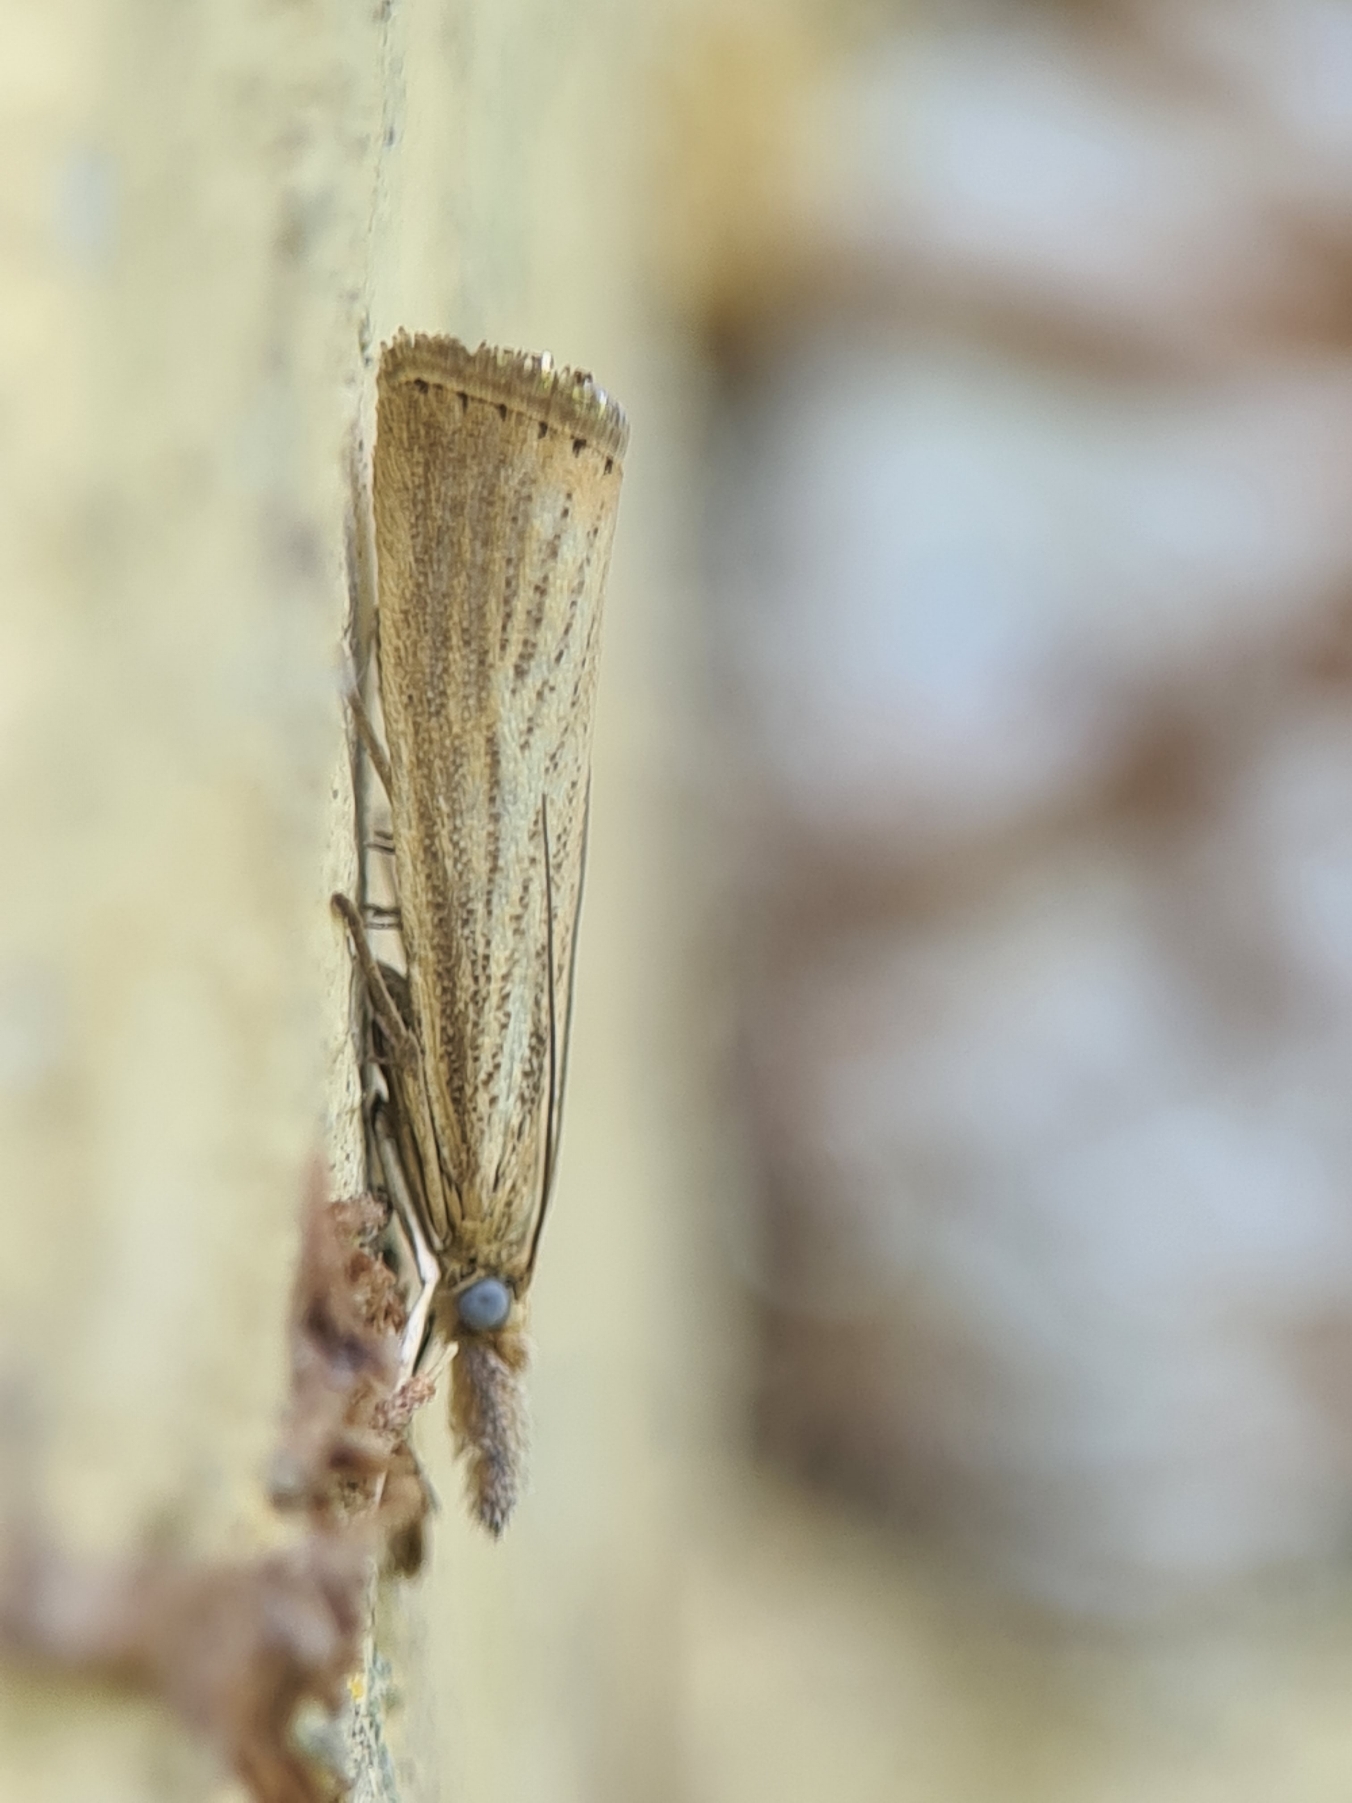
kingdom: Animalia
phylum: Arthropoda
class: Insecta
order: Lepidoptera
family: Crambidae
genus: Agriphila
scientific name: Agriphila straminella
